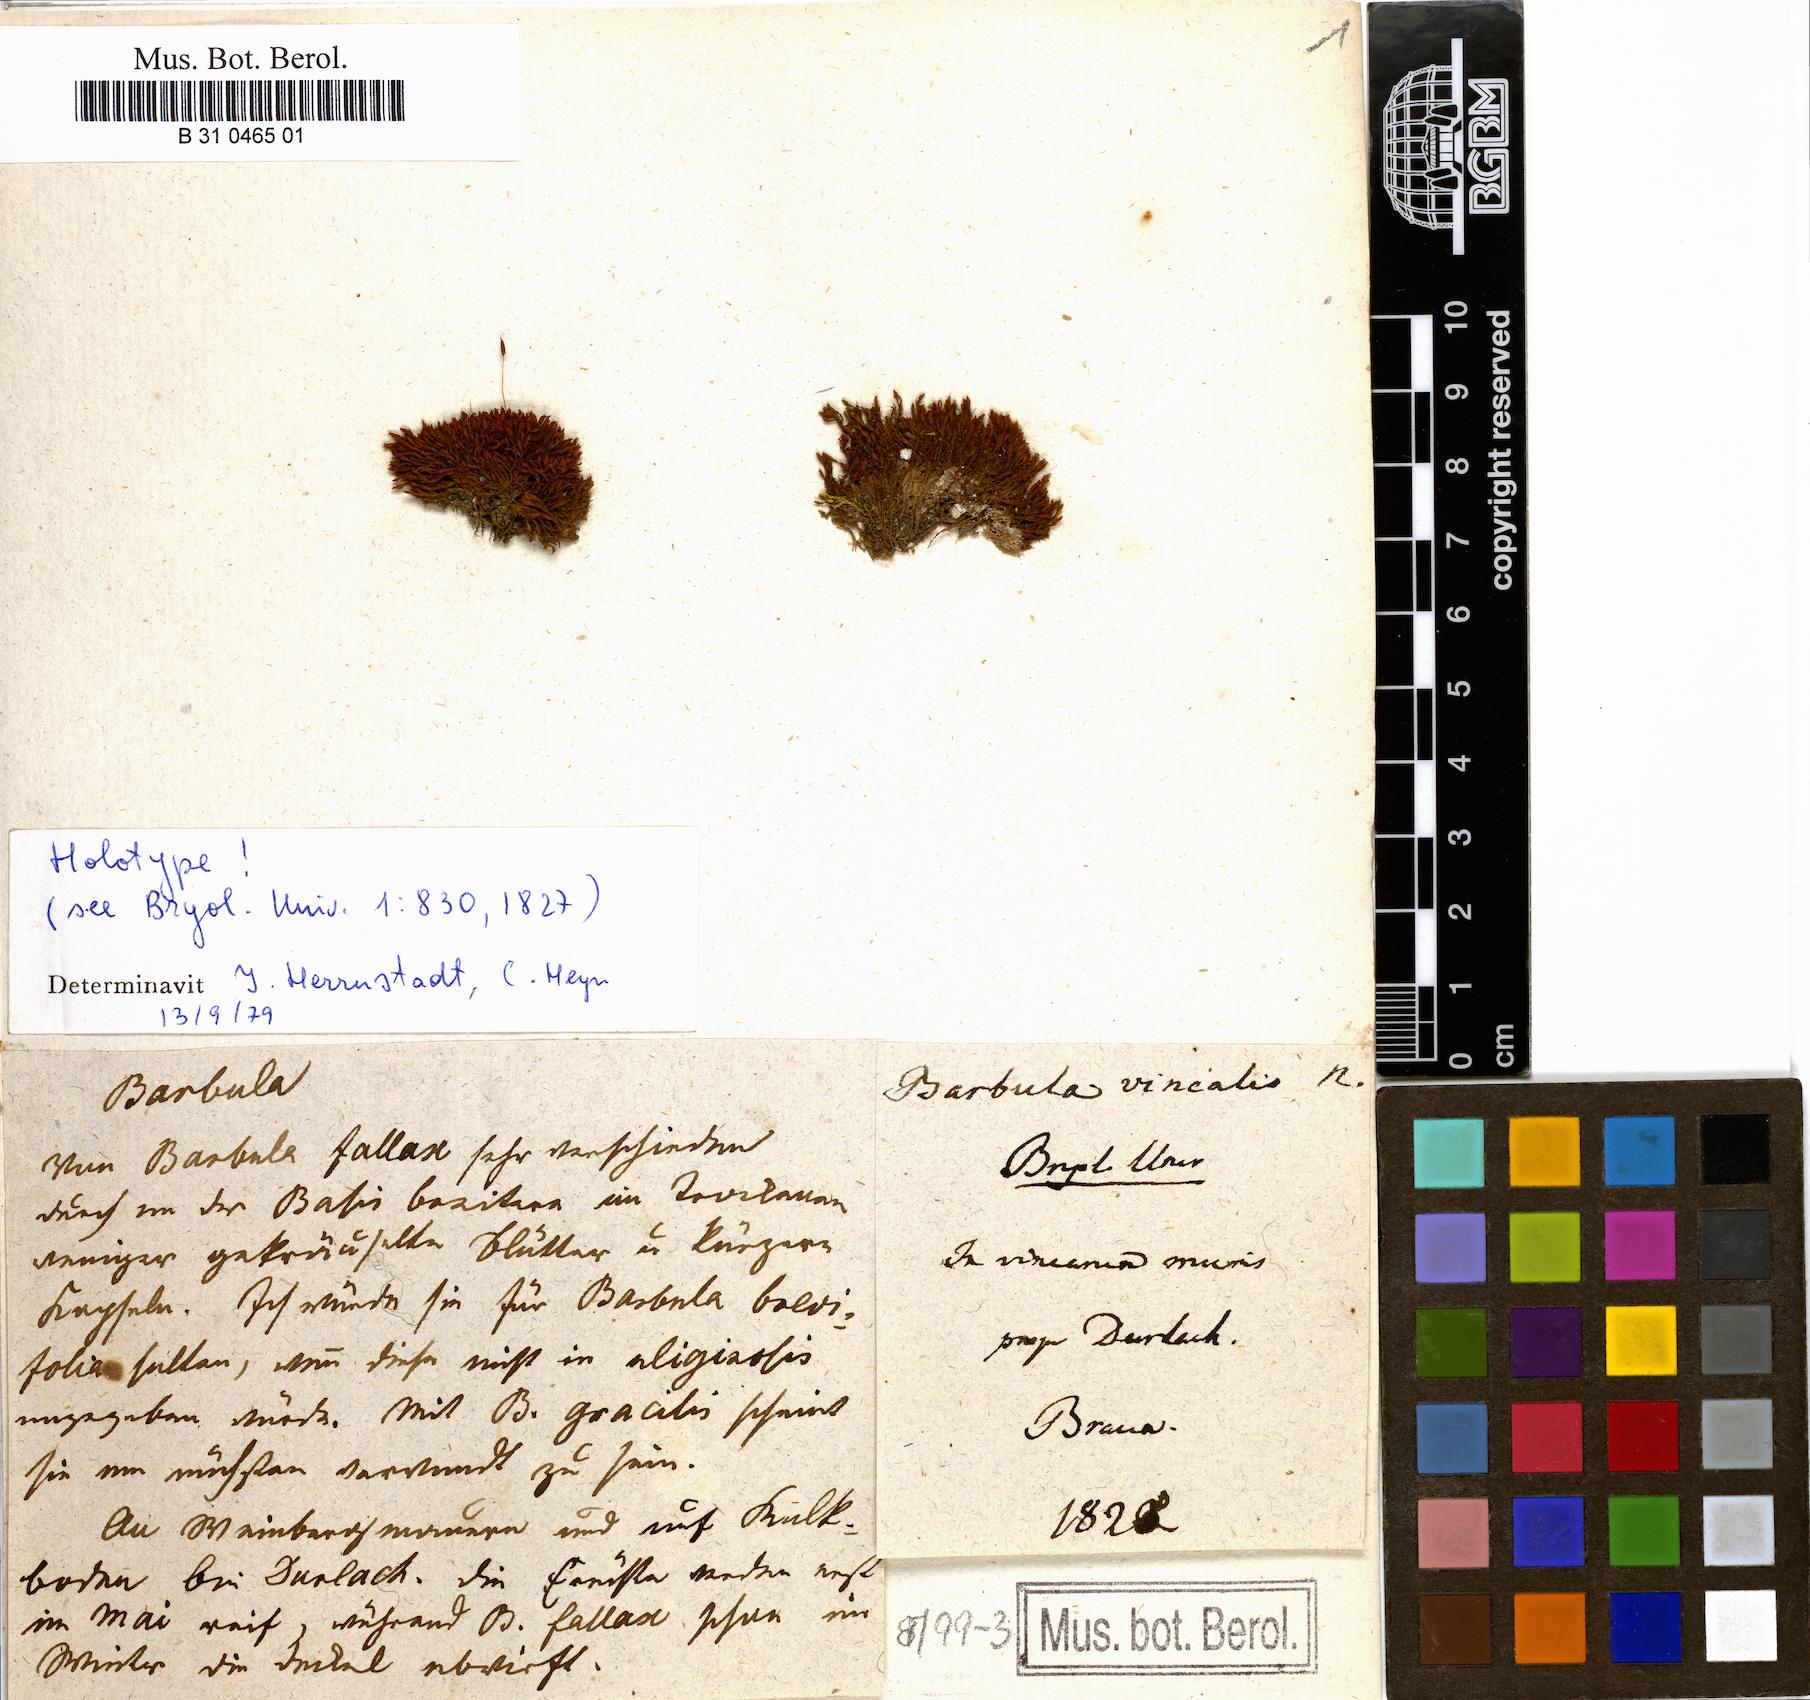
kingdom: Plantae
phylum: Bryophyta
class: Bryopsida
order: Pottiales
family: Pottiaceae
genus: Vinealobryum
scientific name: Vinealobryum vineale
